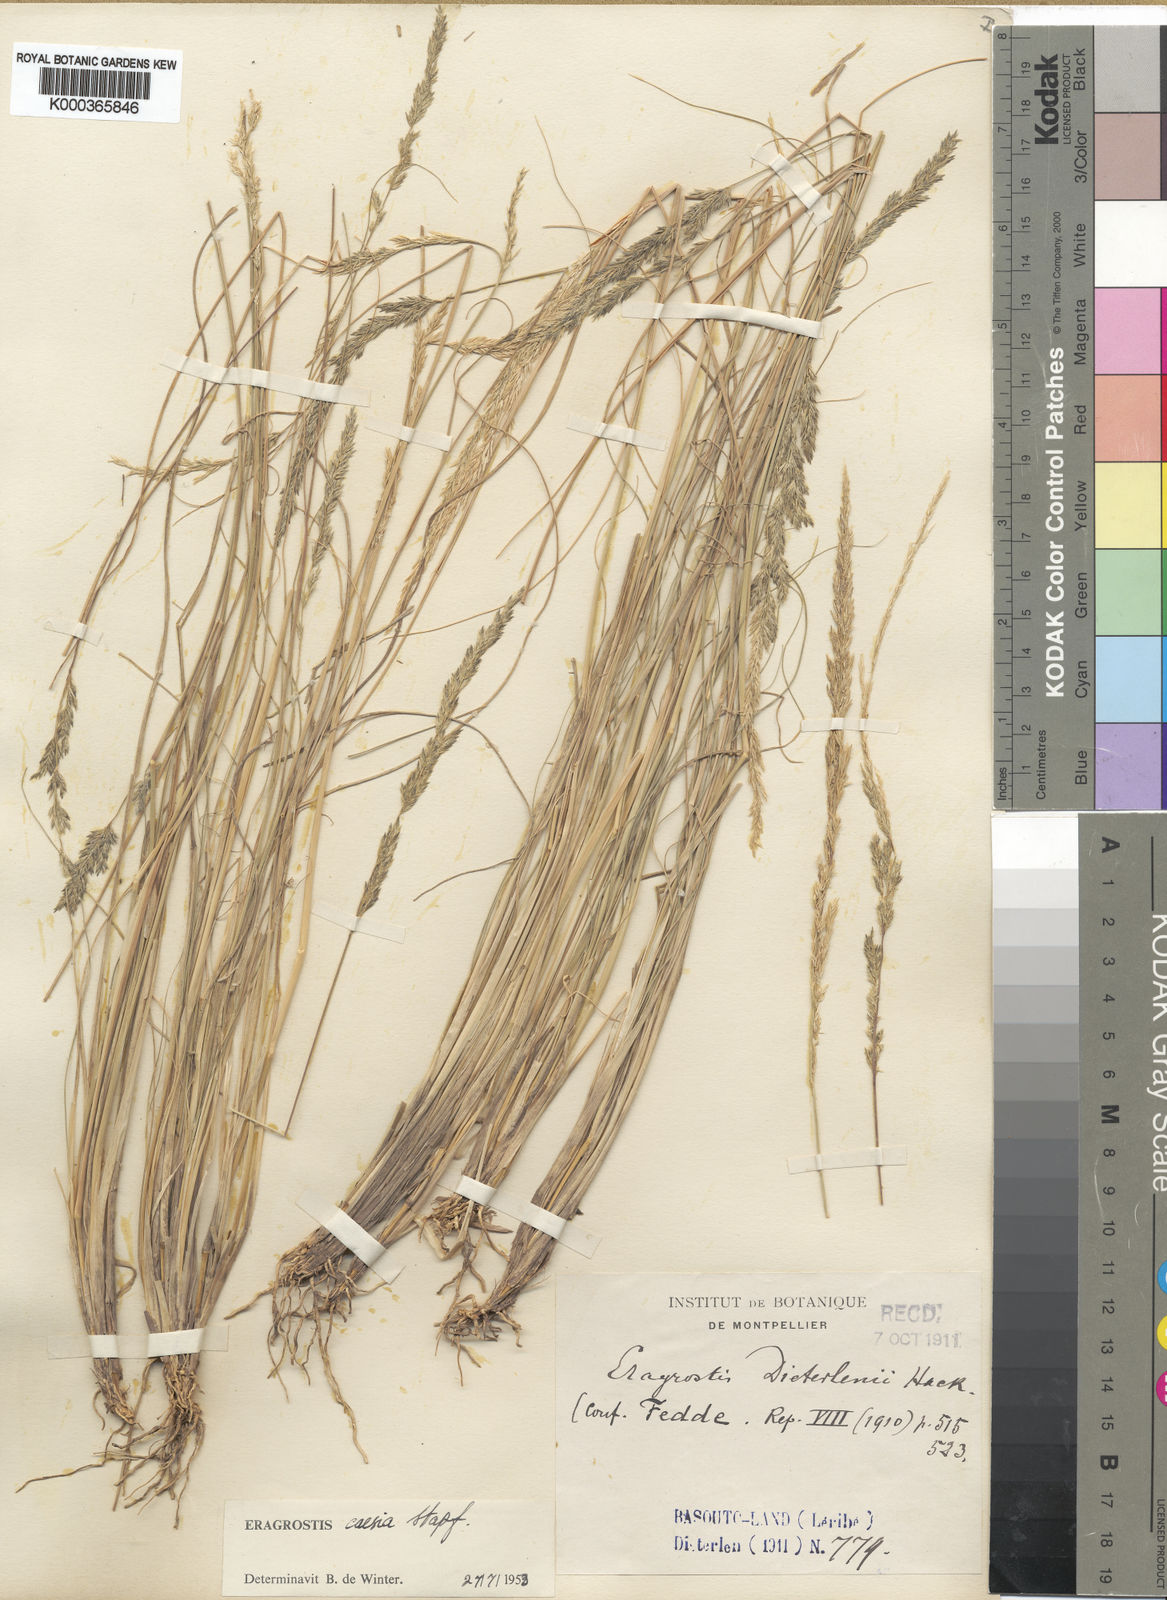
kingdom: Plantae
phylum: Tracheophyta
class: Liliopsida
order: Poales
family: Poaceae
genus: Eragrostis
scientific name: Eragrostis caesia
